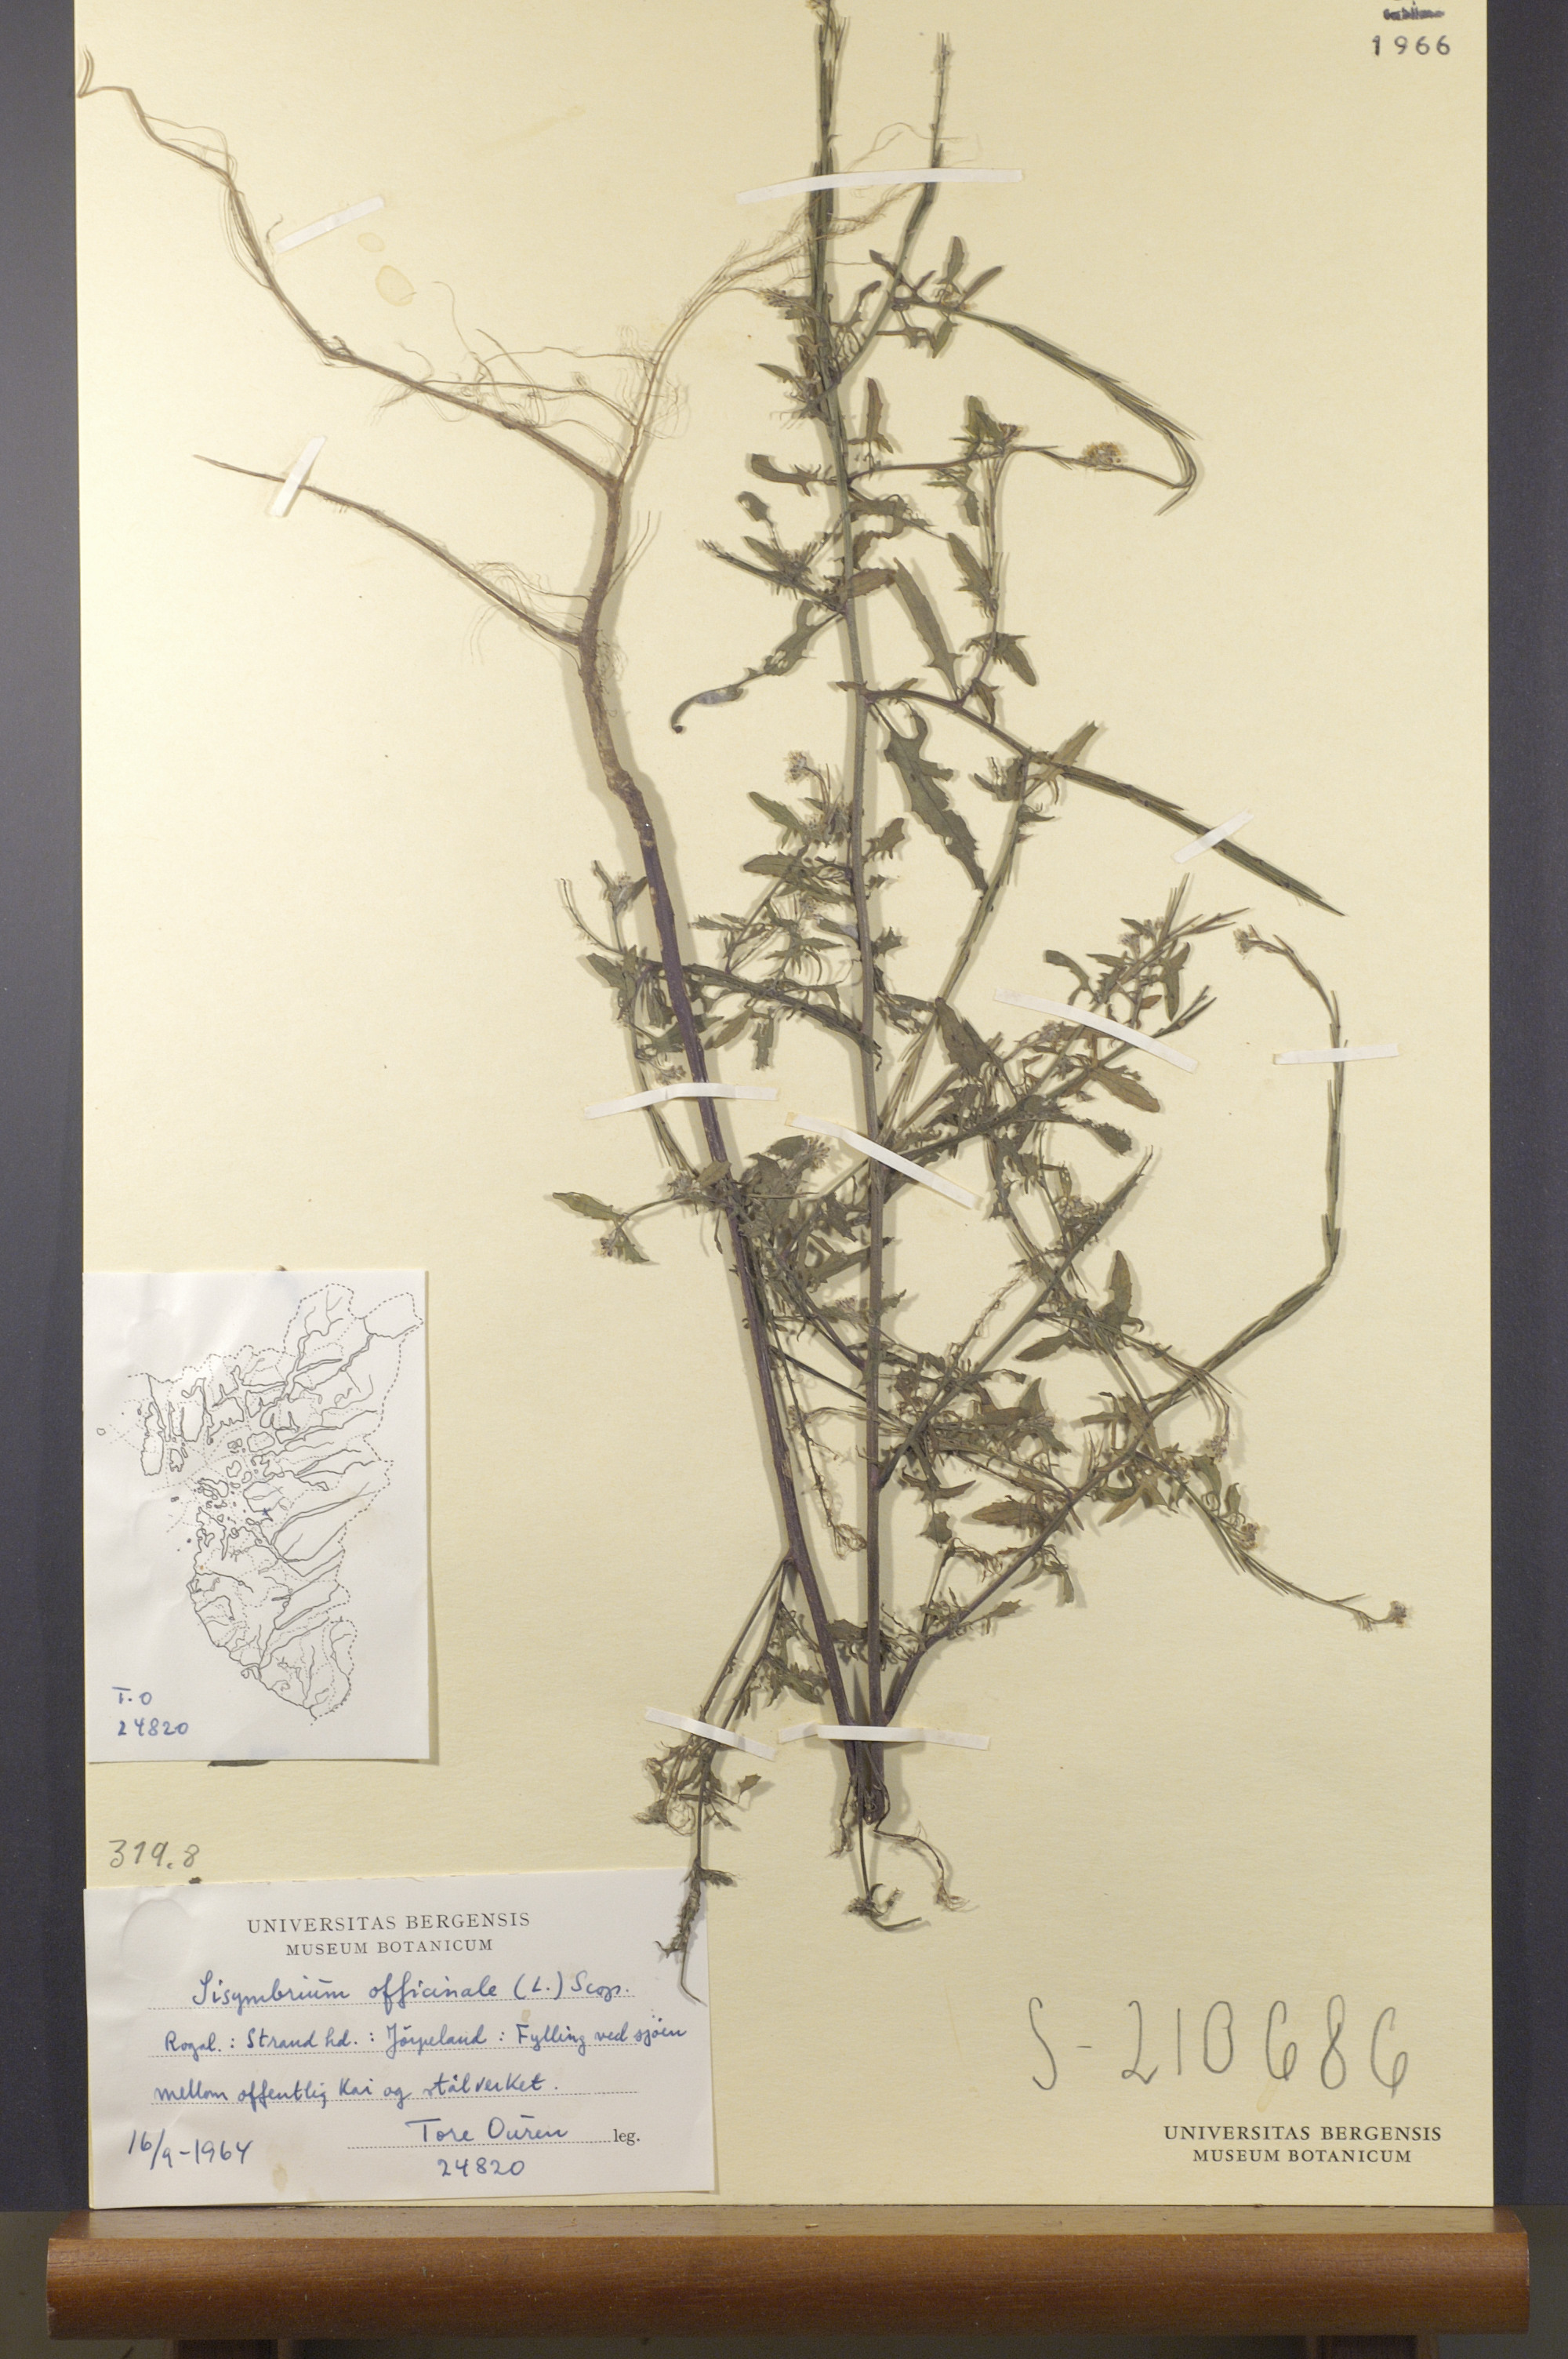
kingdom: Plantae
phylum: Tracheophyta
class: Magnoliopsida
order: Brassicales
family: Brassicaceae
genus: Sisymbrium
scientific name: Sisymbrium officinale
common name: Hedge mustard
